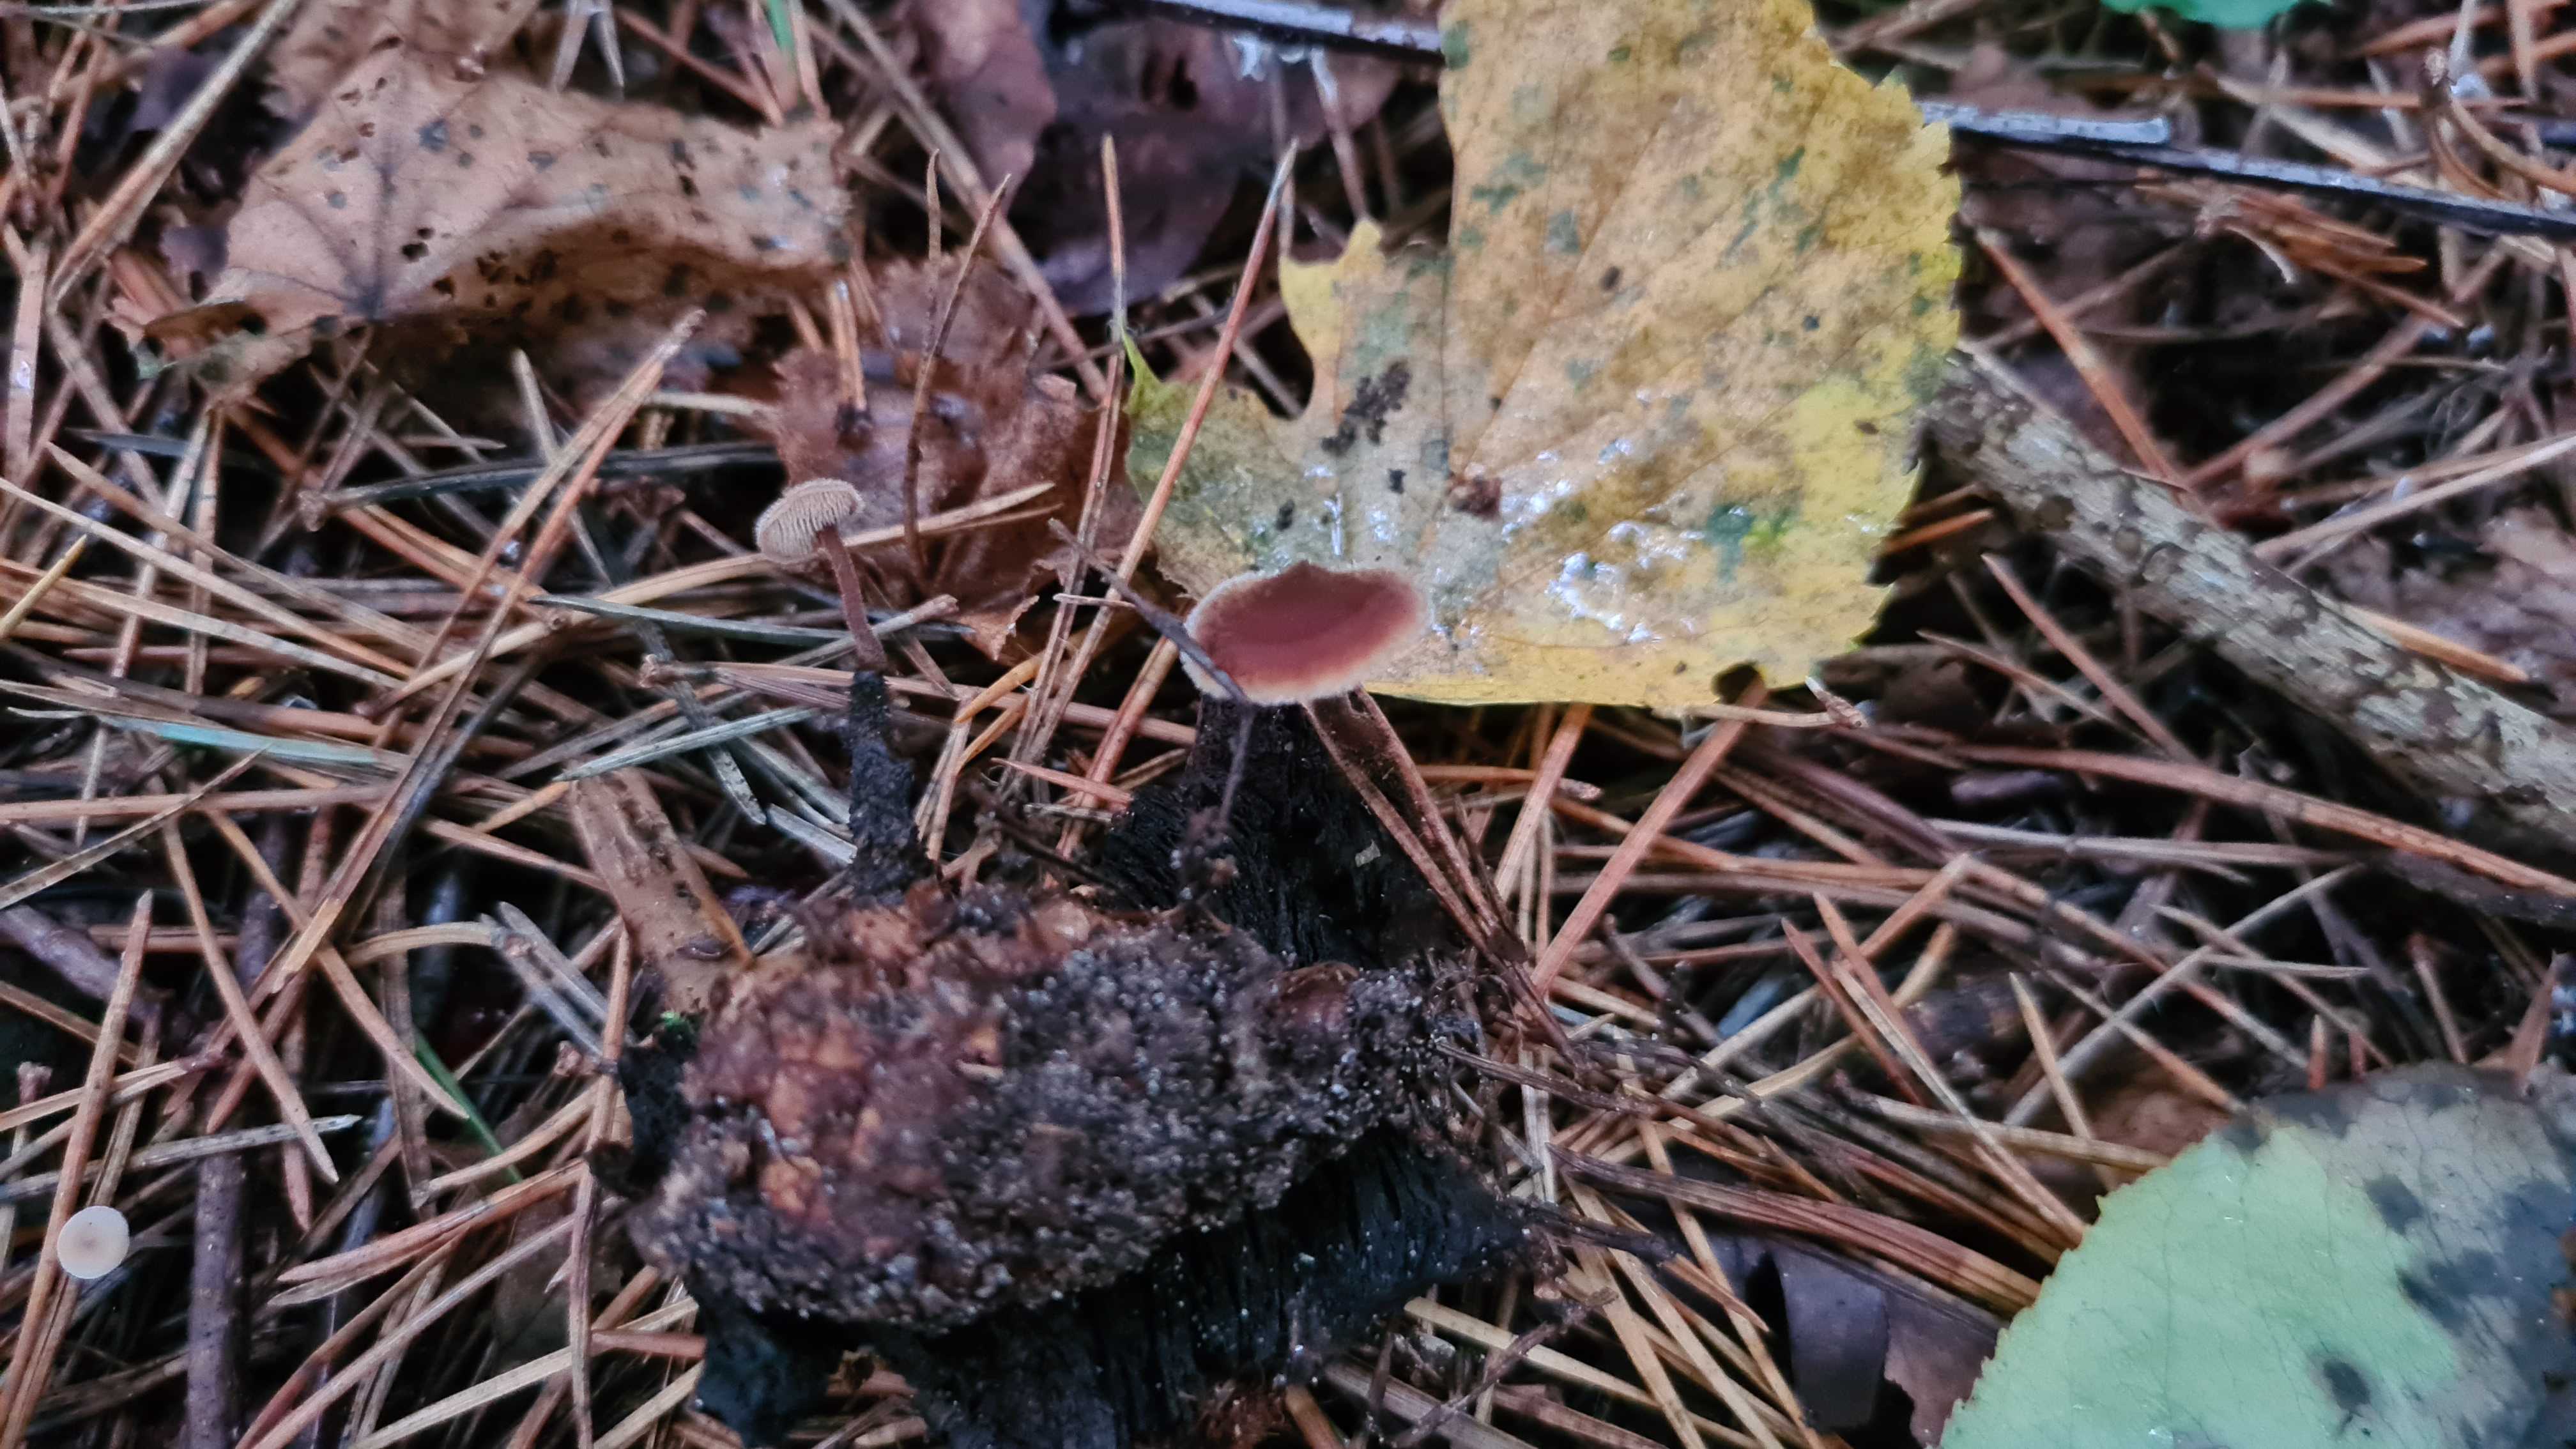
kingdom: Fungi
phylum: Basidiomycota
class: Agaricomycetes
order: Russulales
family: Auriscalpiaceae
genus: Auriscalpium
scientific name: Auriscalpium vulgare
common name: koglepigsvamp
